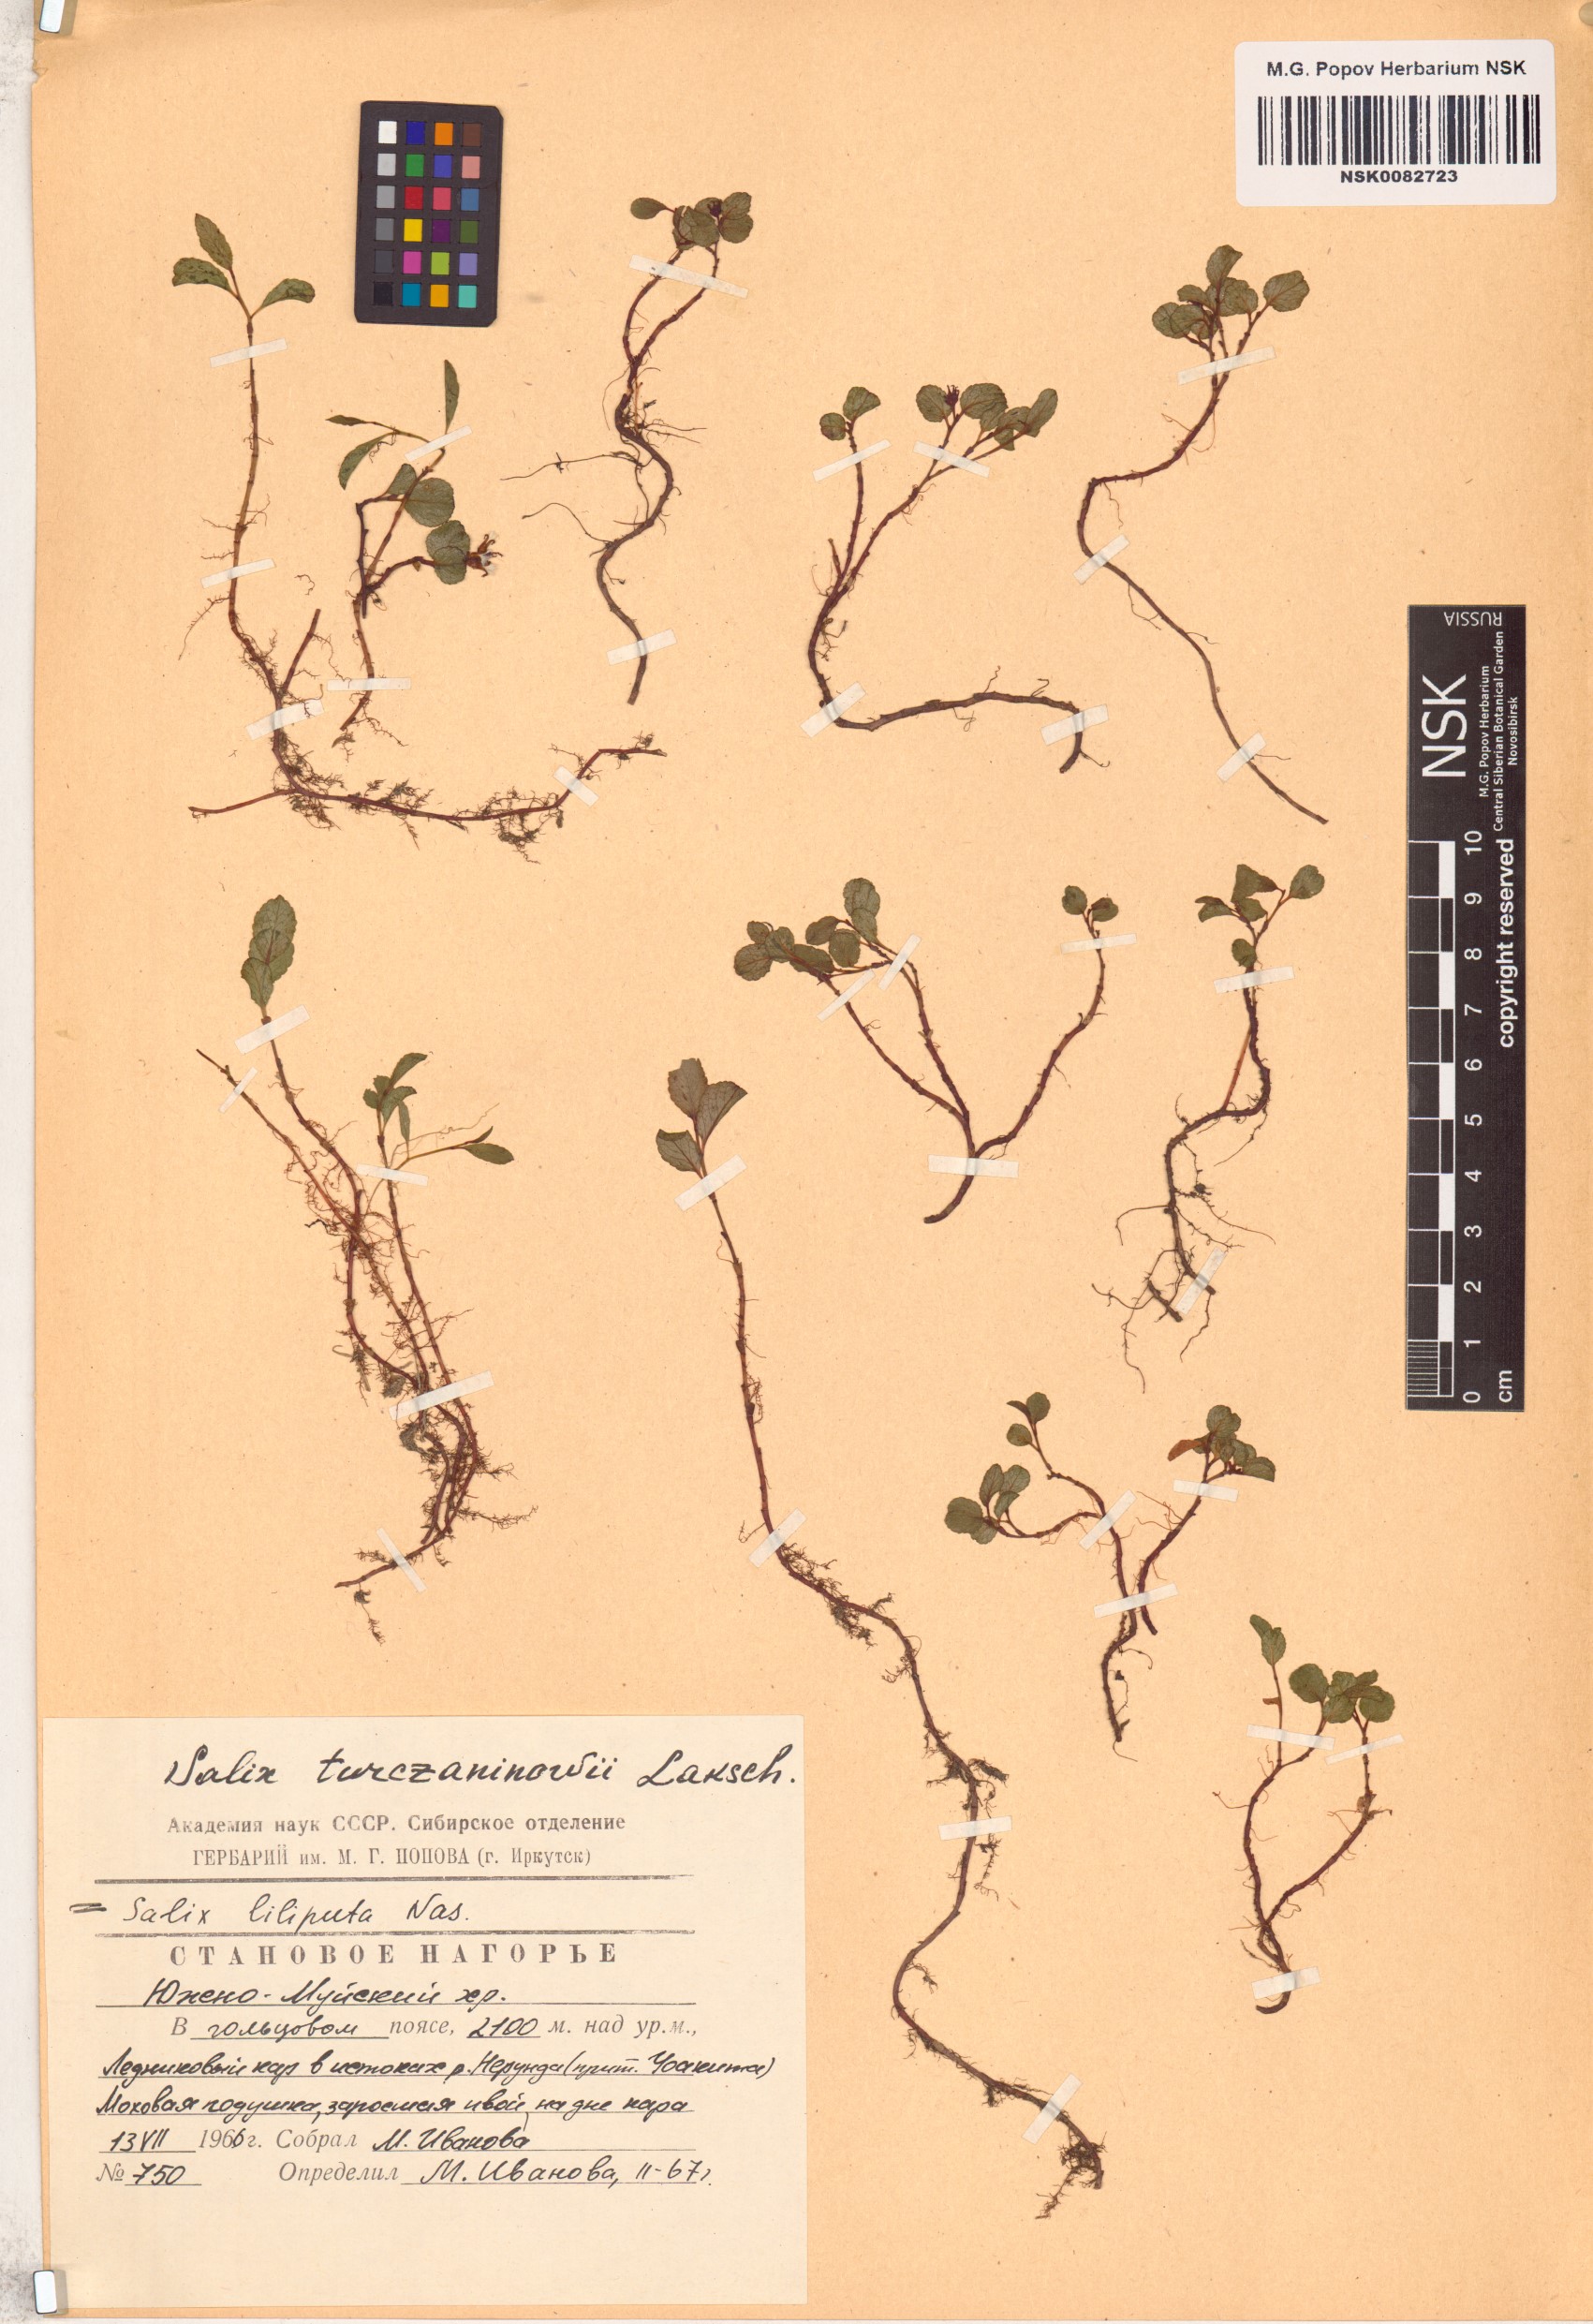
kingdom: Plantae
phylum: Tracheophyta
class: Magnoliopsida
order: Malpighiales
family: Salicaceae
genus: Salix
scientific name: Salix turczaninowii
